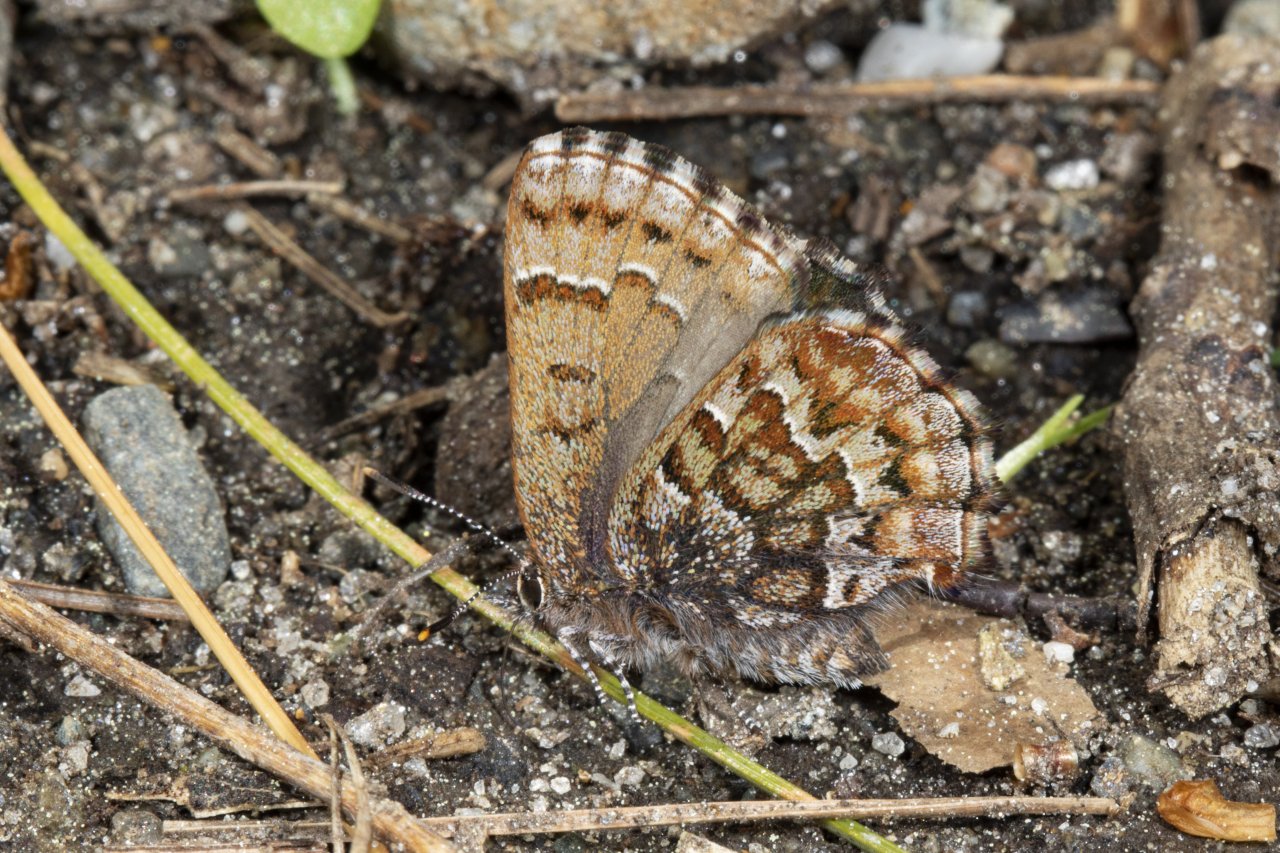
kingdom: Animalia
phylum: Arthropoda
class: Insecta
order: Lepidoptera
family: Lycaenidae
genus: Incisalia
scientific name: Incisalia niphon
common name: Eastern Pine Elfin
